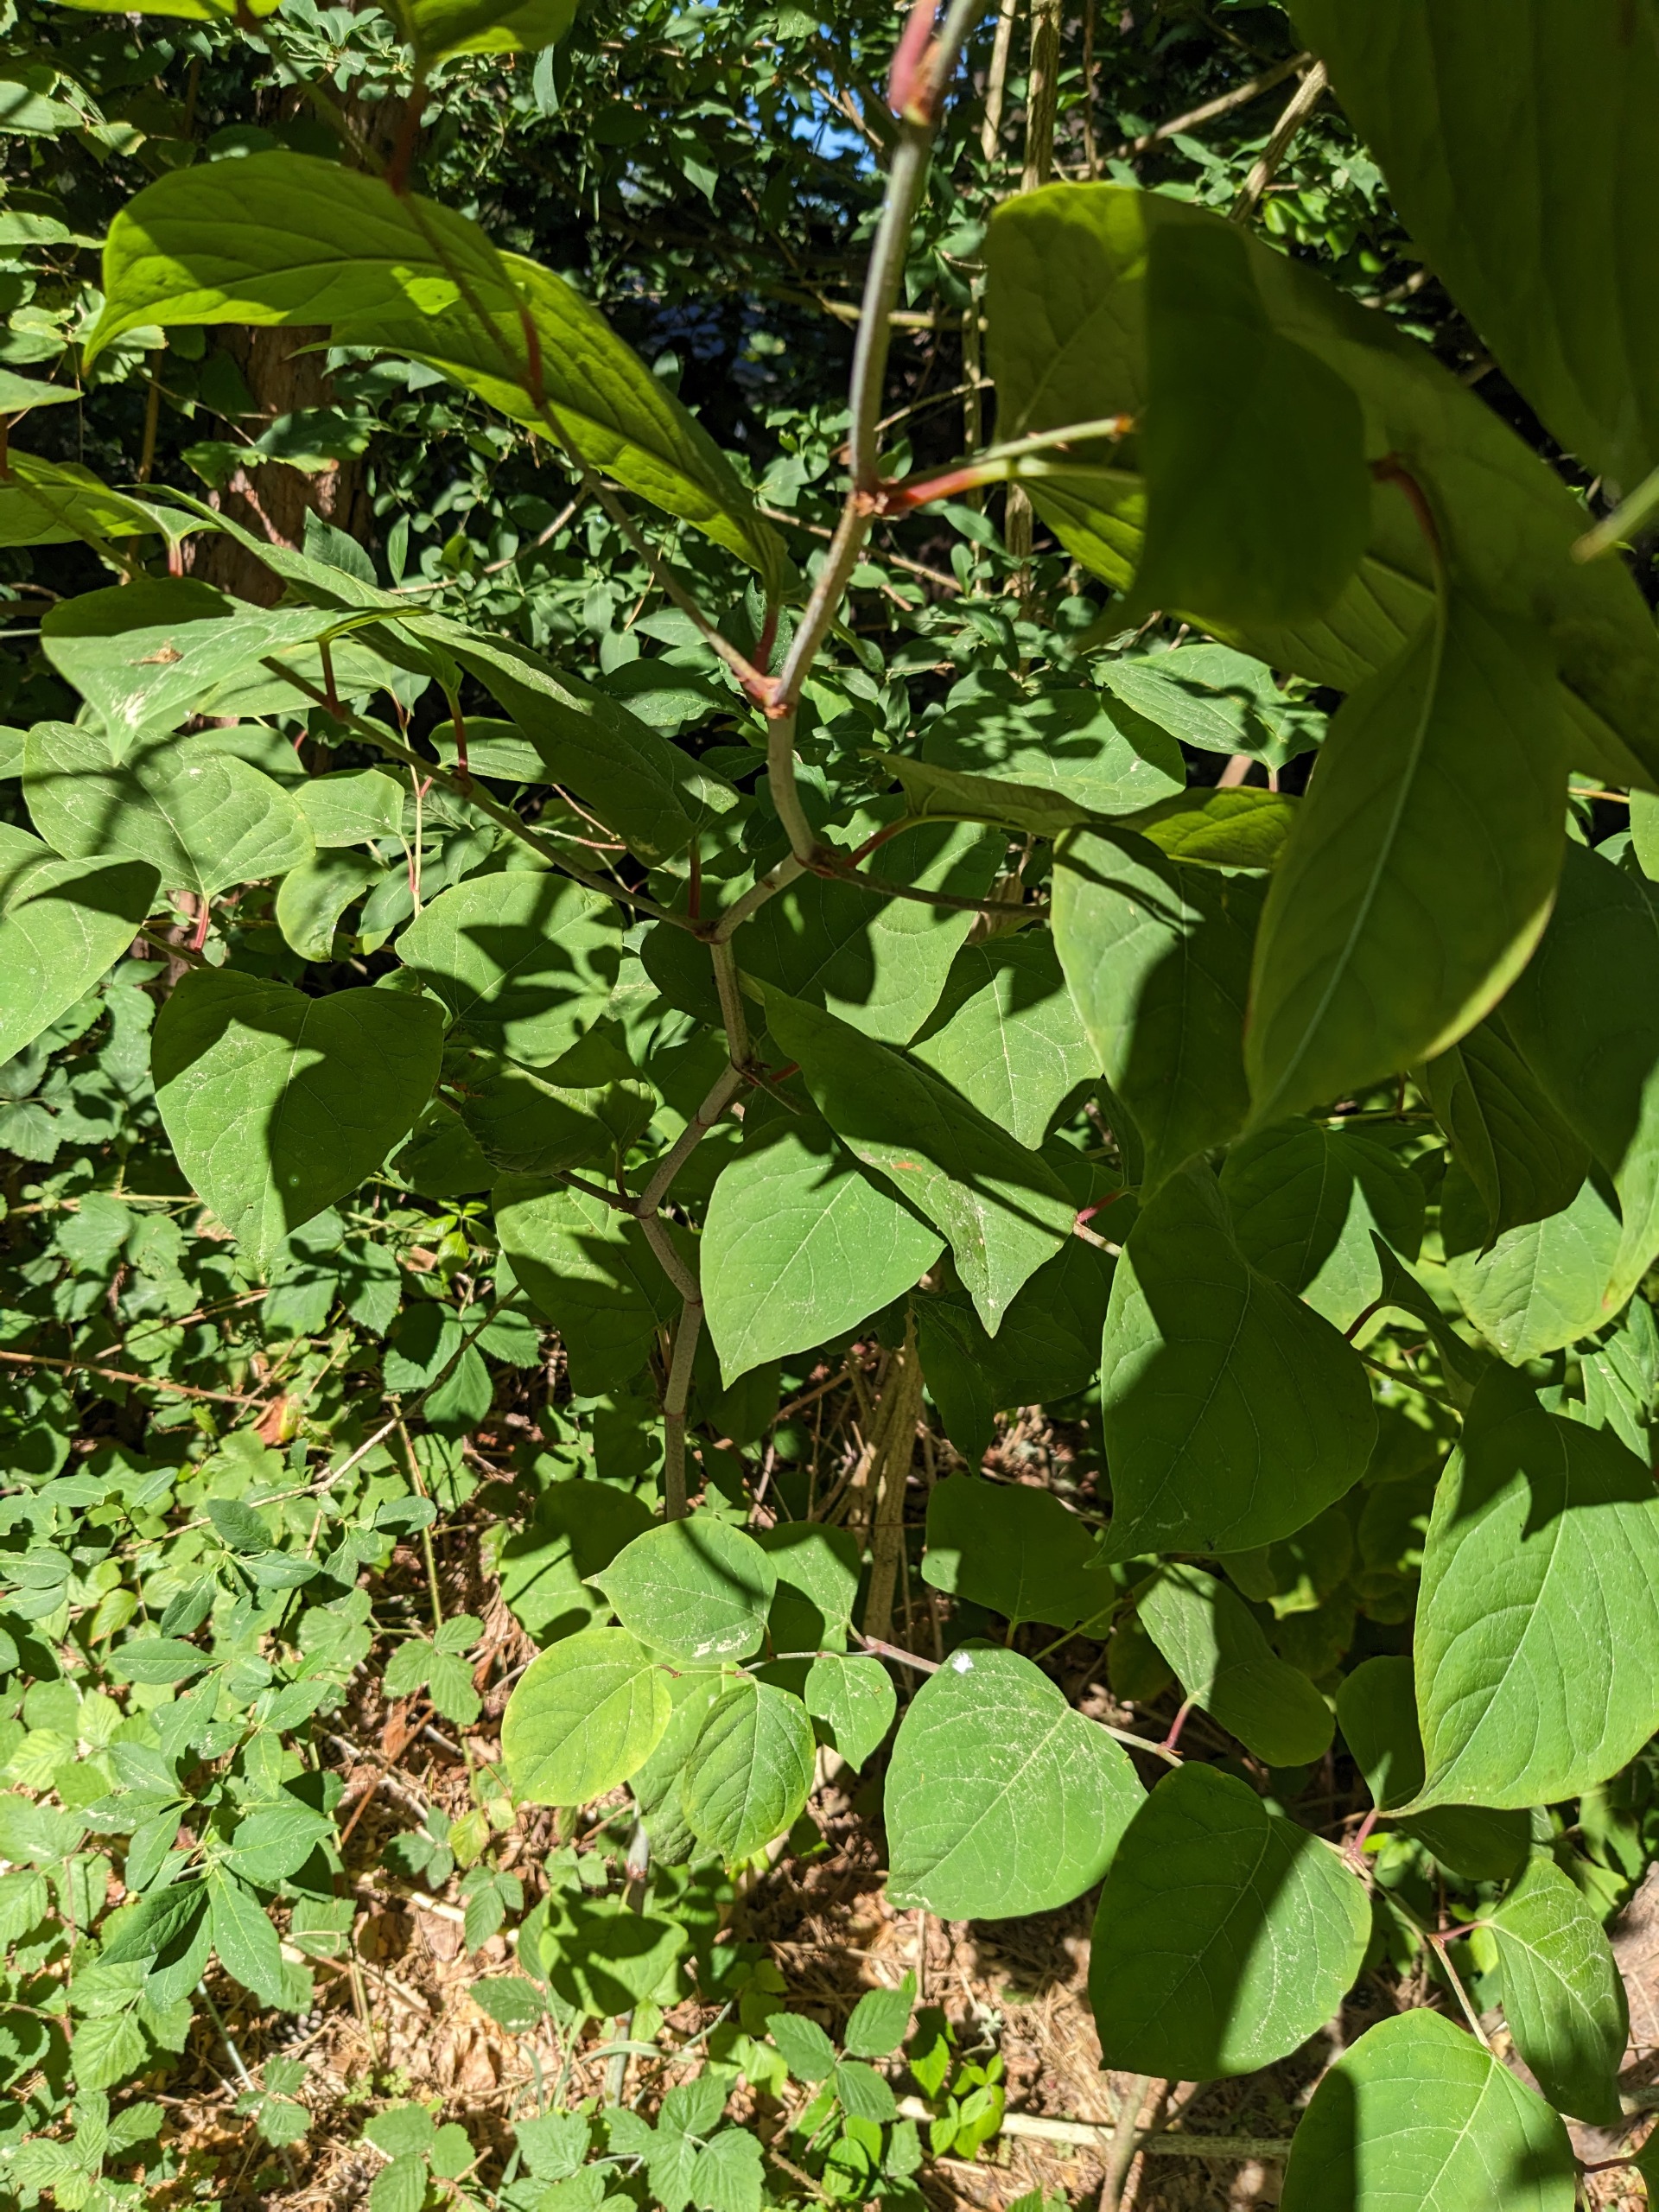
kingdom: Plantae
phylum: Tracheophyta
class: Magnoliopsida
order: Caryophyllales
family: Polygonaceae
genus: Reynoutria
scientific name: Reynoutria japonica
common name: Japan-pileurt
